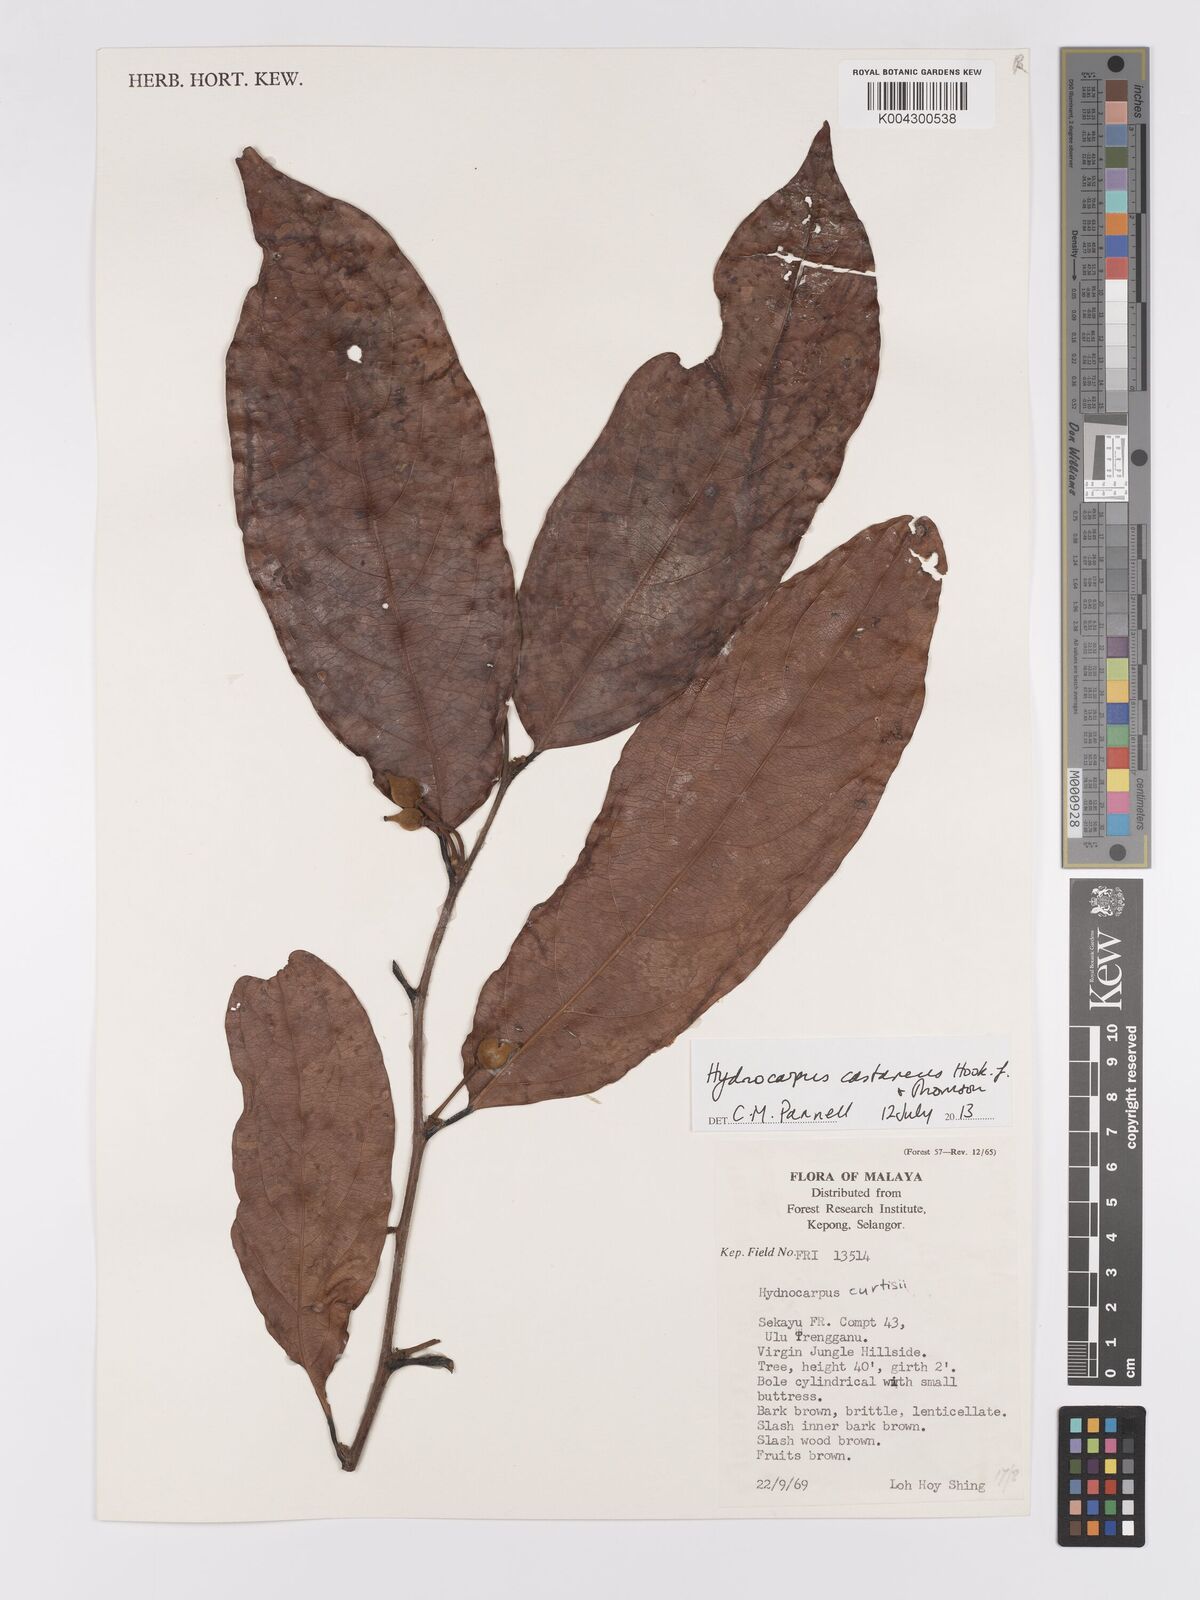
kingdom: Plantae
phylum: Tracheophyta
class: Magnoliopsida
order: Malpighiales
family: Achariaceae
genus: Hydnocarpus
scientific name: Hydnocarpus curtisii
